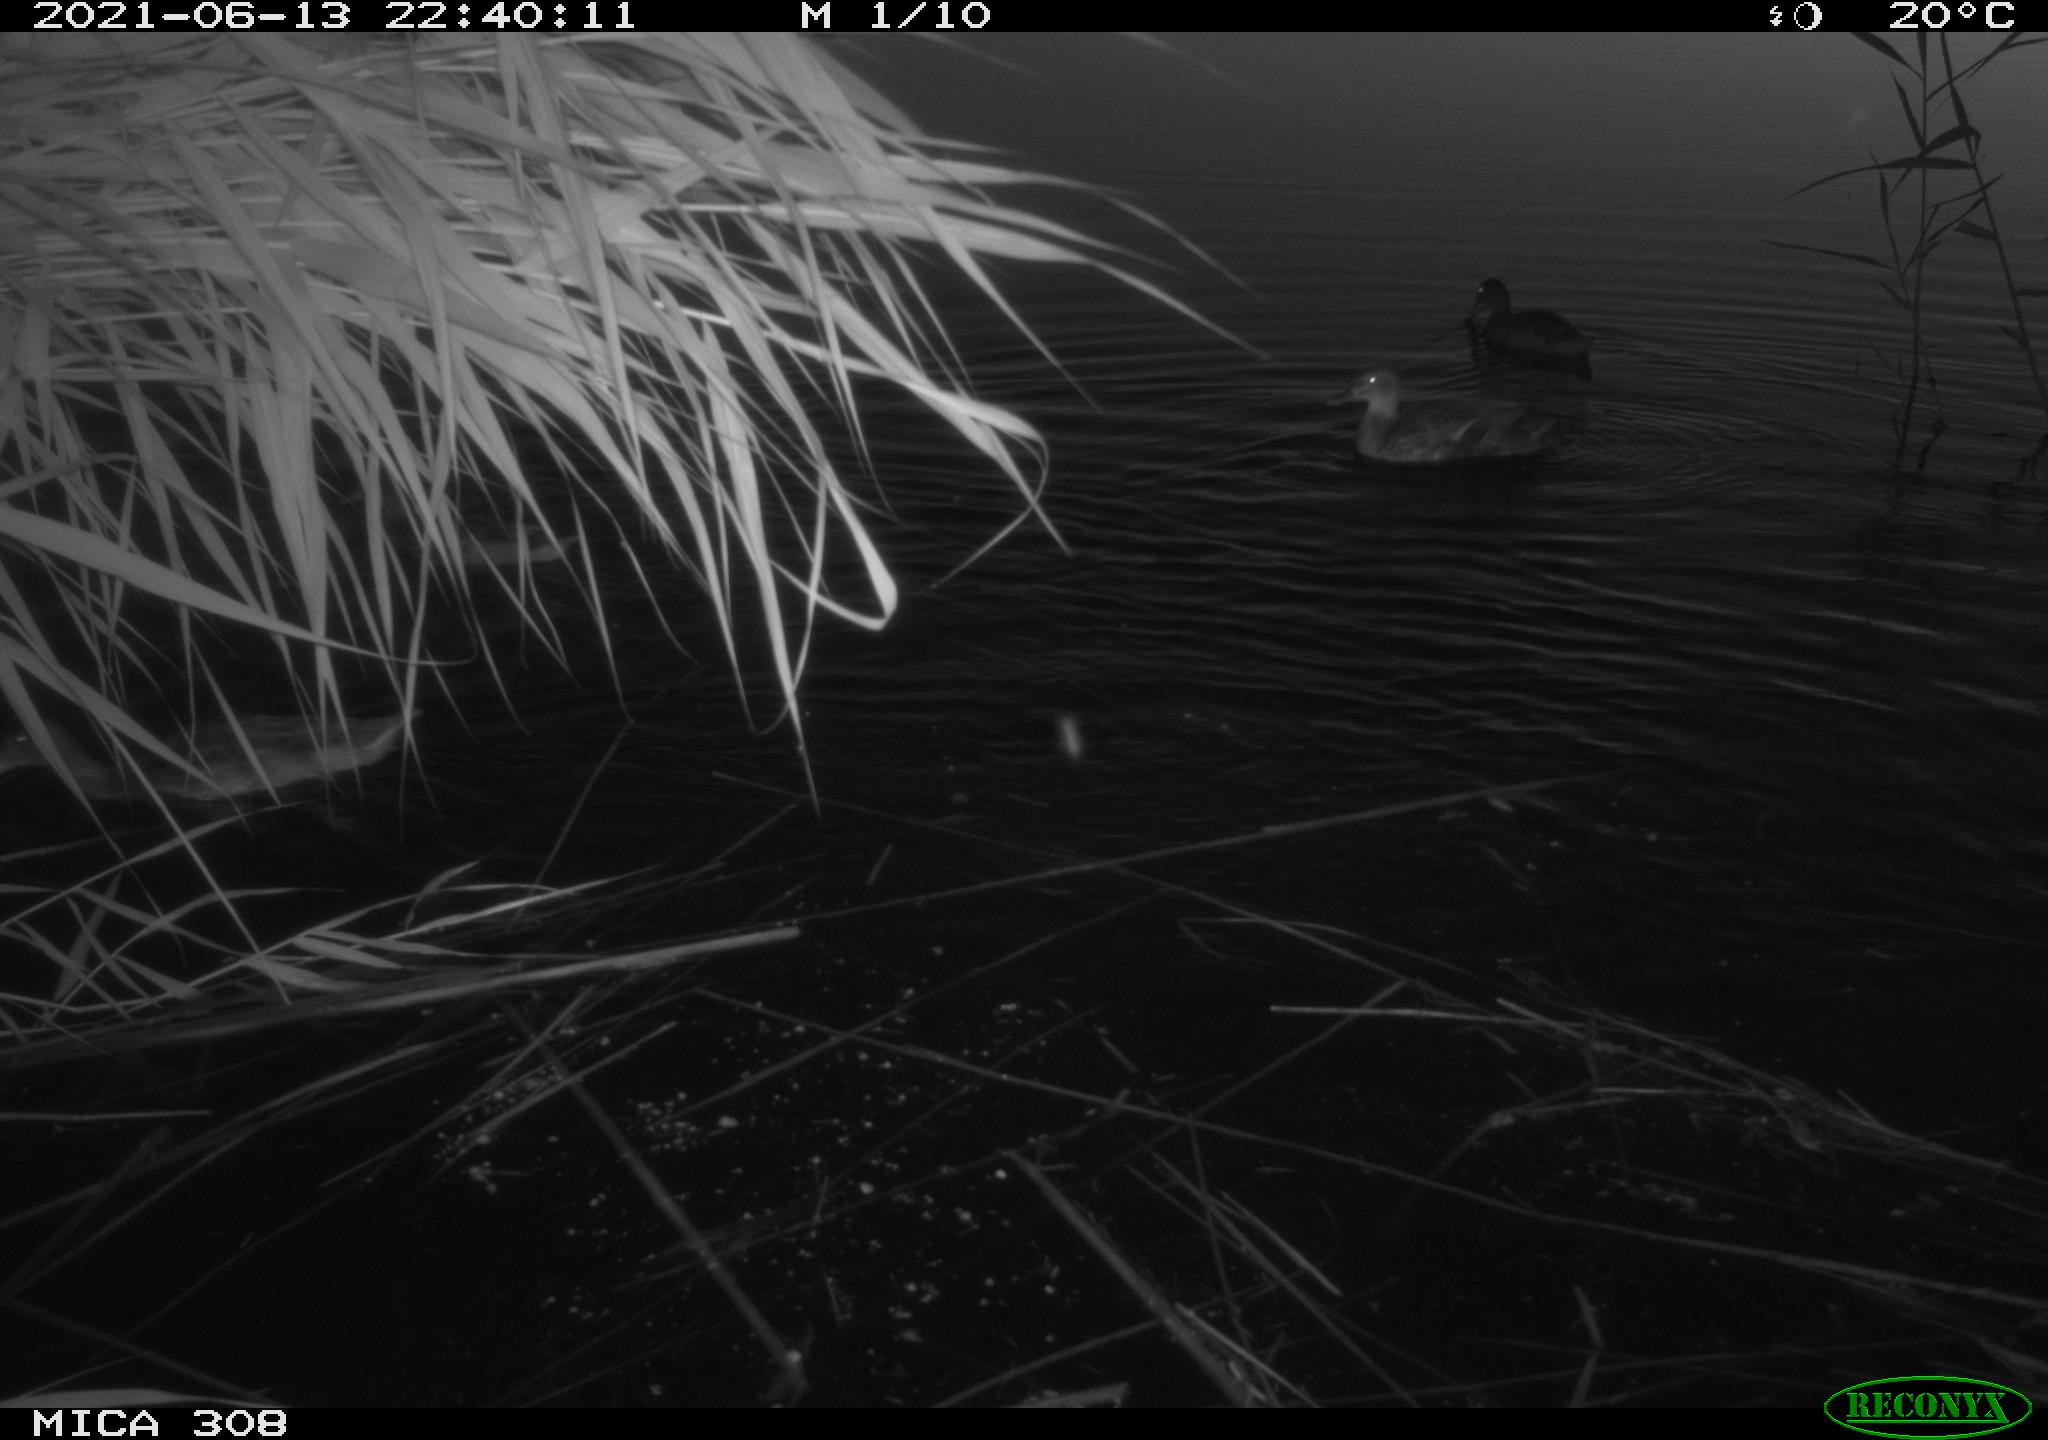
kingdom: Animalia
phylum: Chordata
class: Aves
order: Anseriformes
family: Anatidae
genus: Anas
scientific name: Anas platyrhynchos
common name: Mallard
